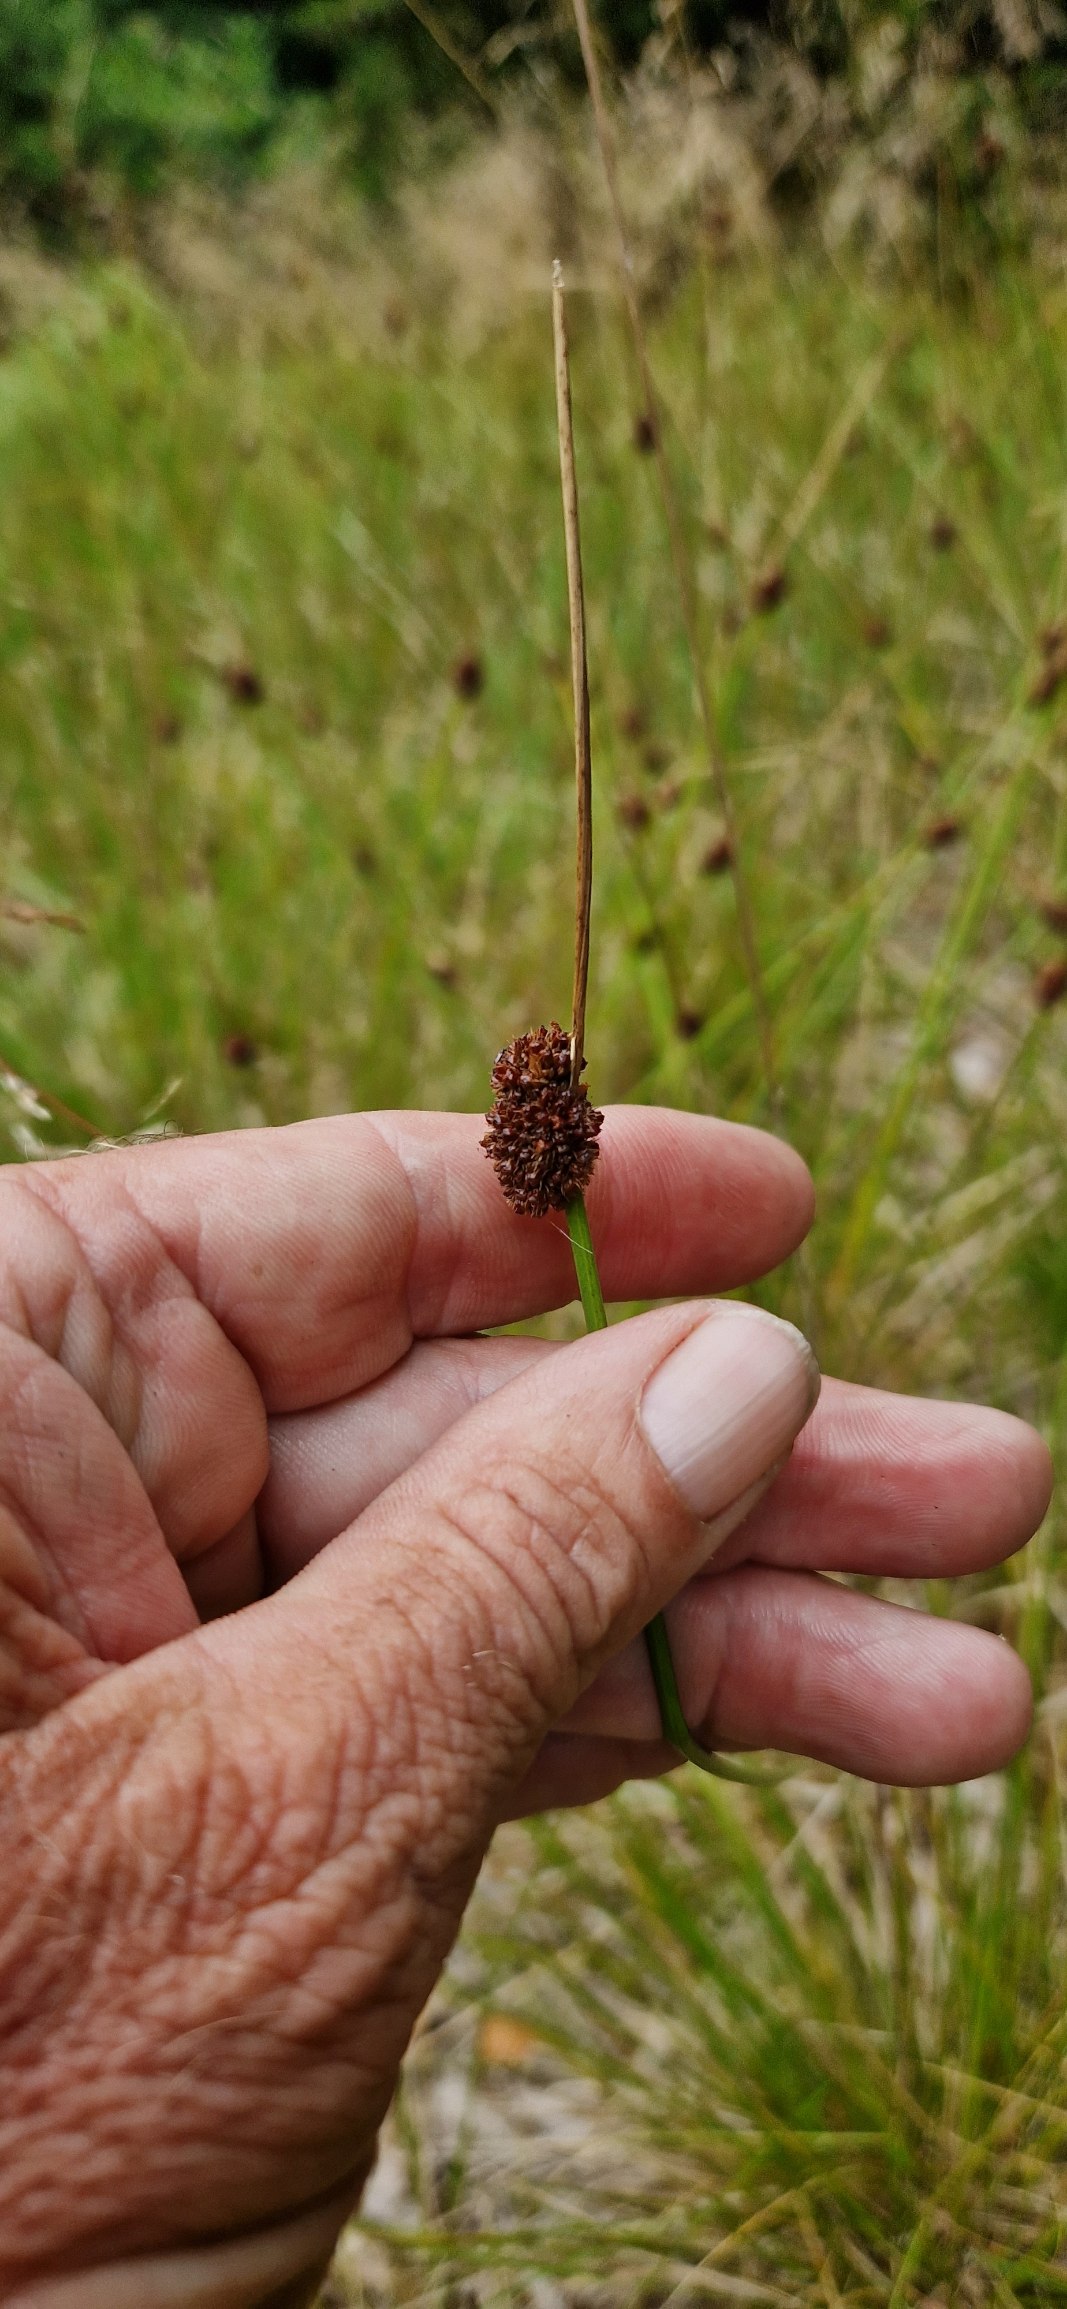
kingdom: Plantae
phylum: Tracheophyta
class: Liliopsida
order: Poales
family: Juncaceae
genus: Juncus
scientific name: Juncus conglomeratus
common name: Knop-siv
